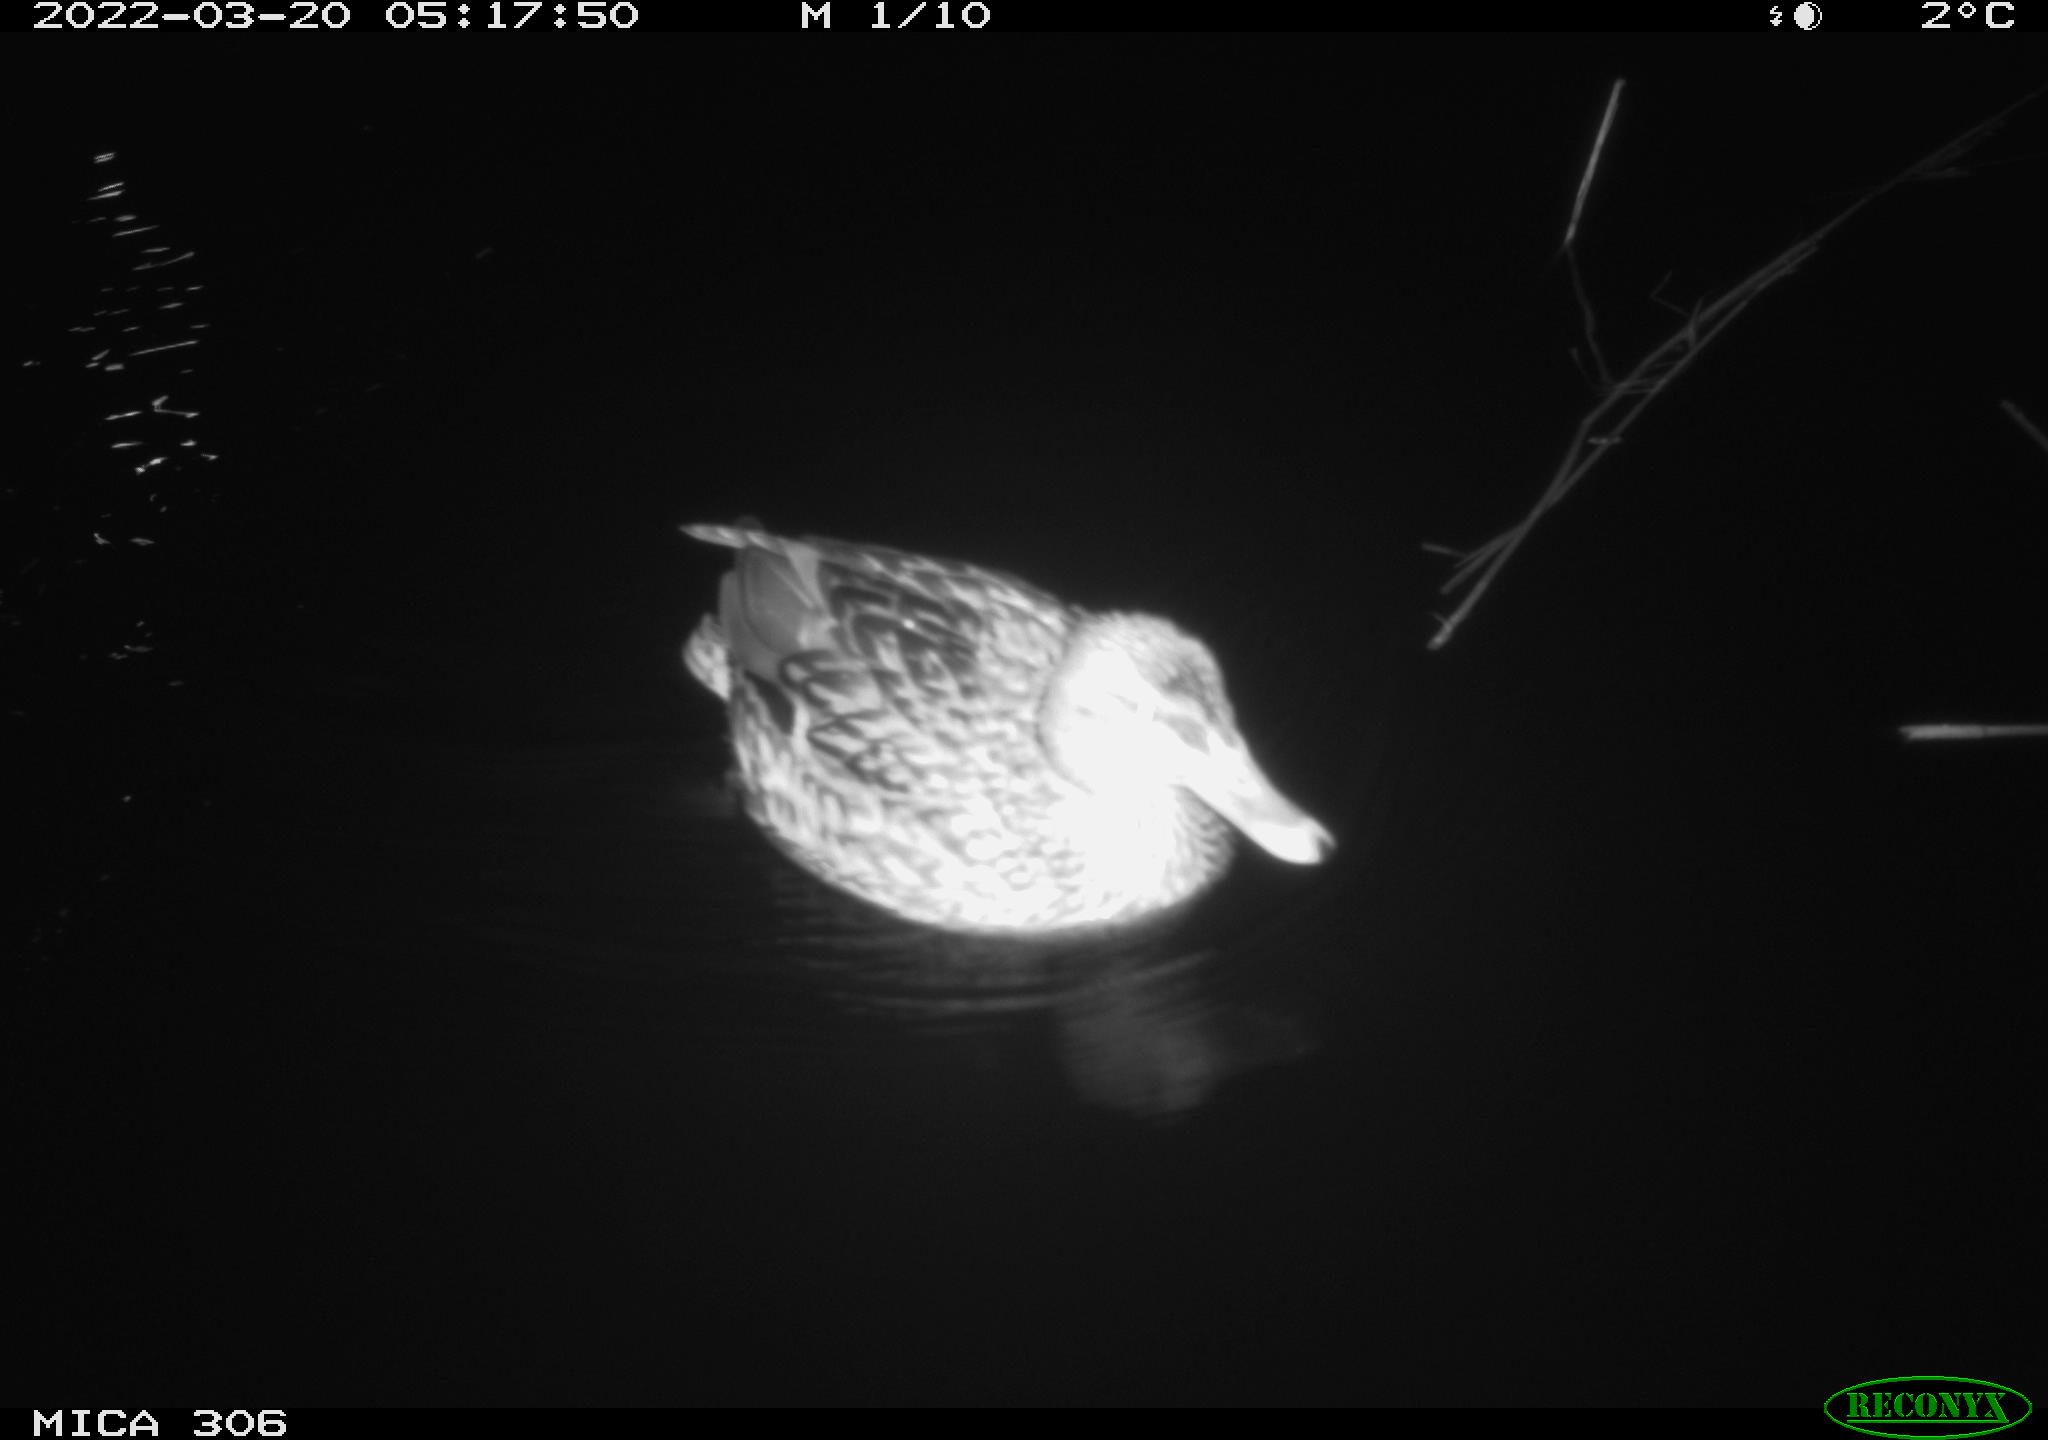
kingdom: Animalia
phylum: Chordata
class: Aves
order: Anseriformes
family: Anatidae
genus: Anas
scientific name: Anas
